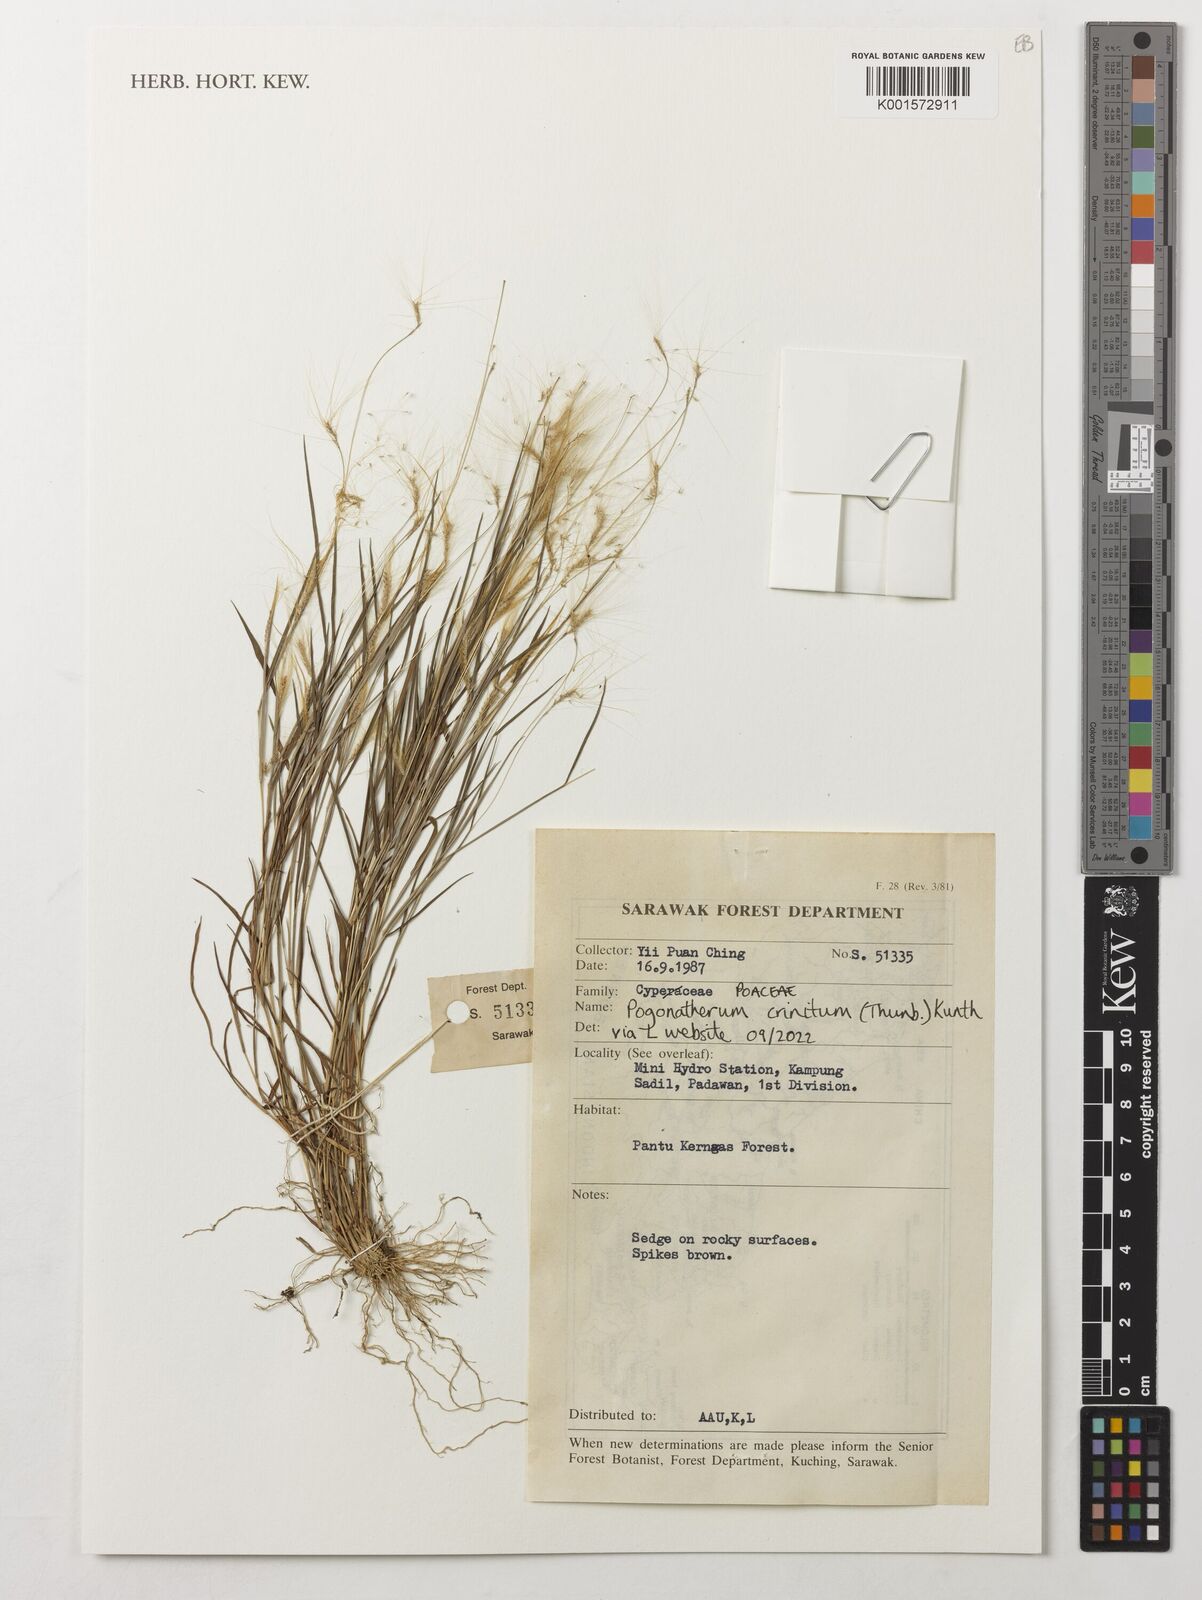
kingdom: Plantae
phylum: Tracheophyta
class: Liliopsida
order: Poales
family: Poaceae
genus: Pogonatherum
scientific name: Pogonatherum crinitum
